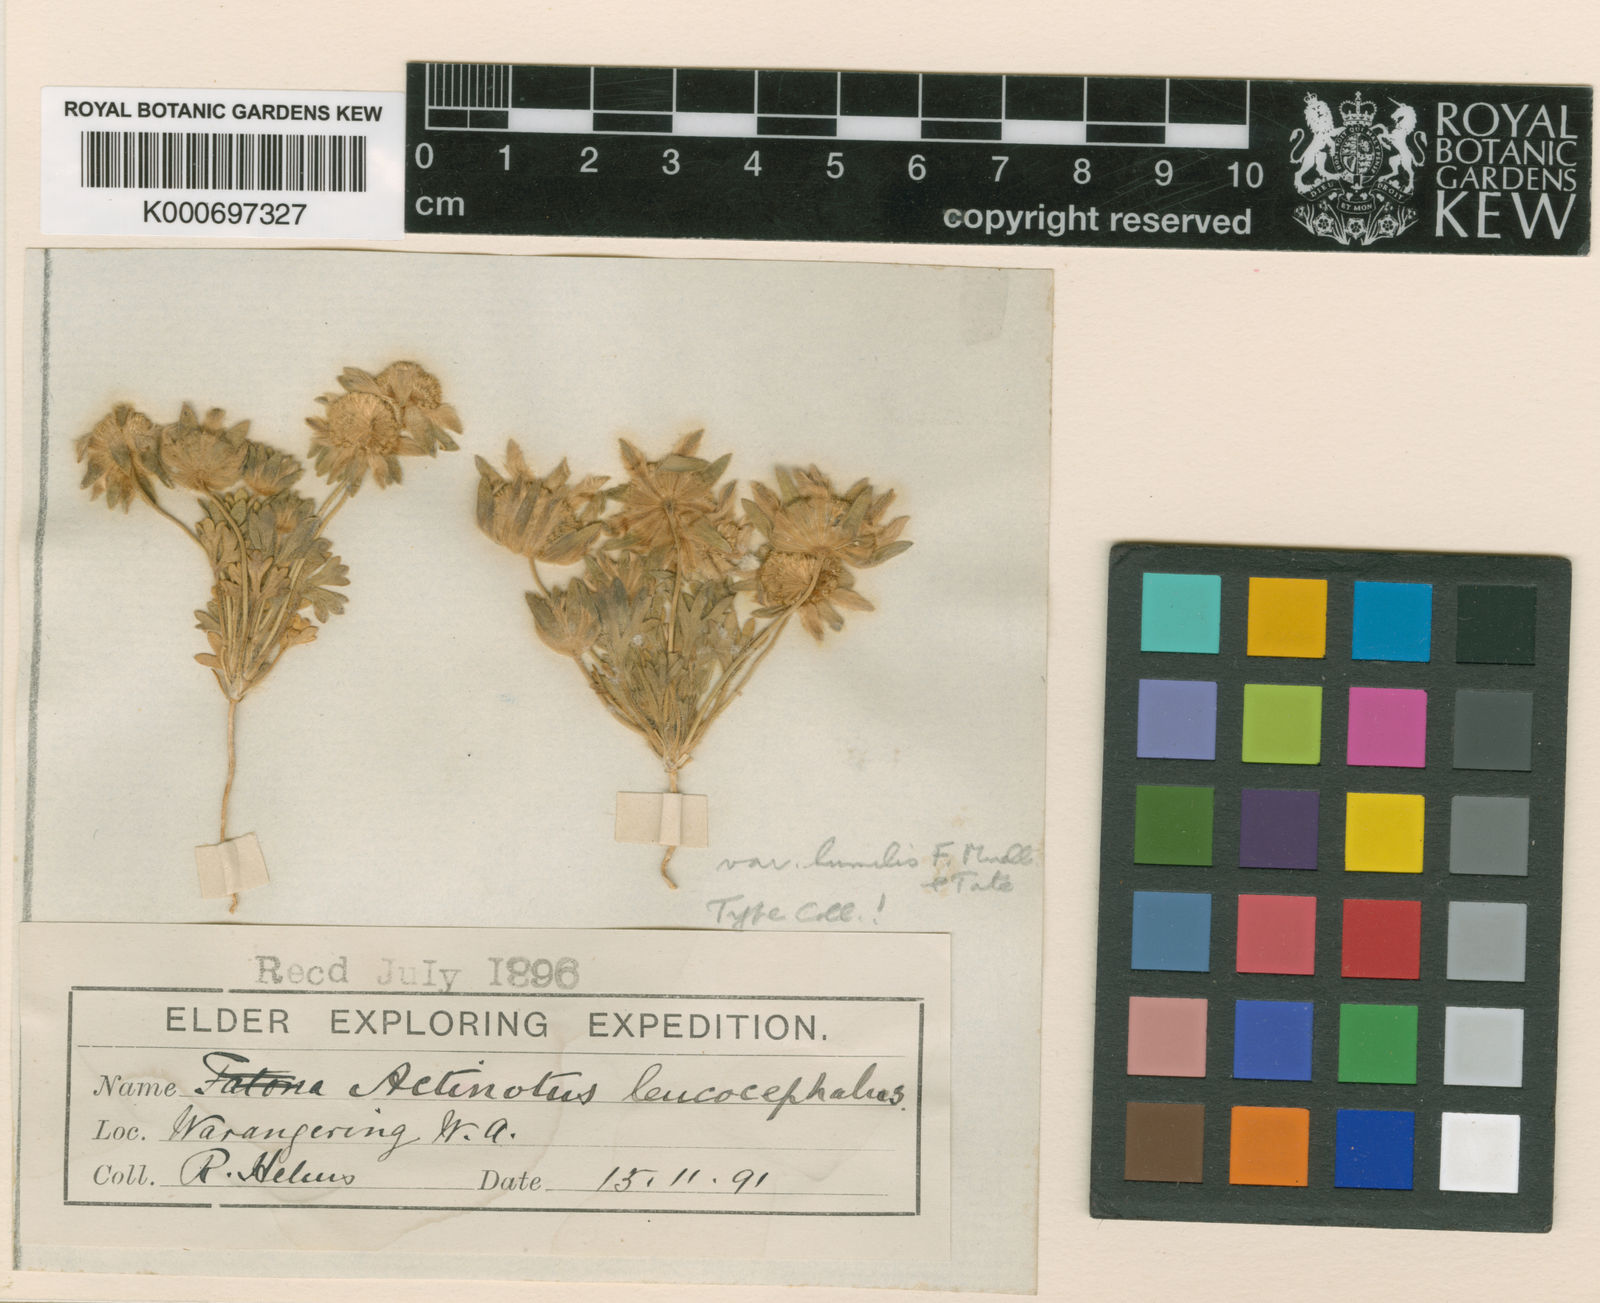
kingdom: Plantae
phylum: Tracheophyta
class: Magnoliopsida
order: Apiales
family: Apiaceae
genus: Actinotus
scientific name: Actinotus humilis
